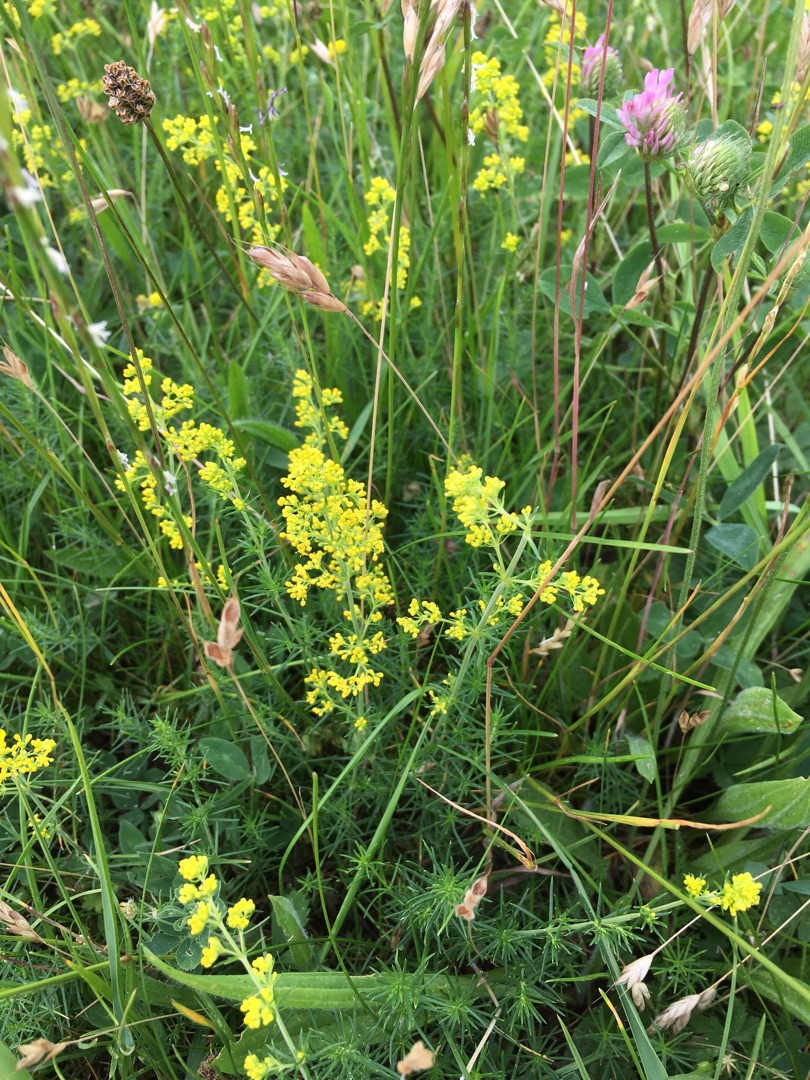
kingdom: Plantae
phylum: Tracheophyta
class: Magnoliopsida
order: Gentianales
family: Rubiaceae
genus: Galium
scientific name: Galium verum
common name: Gul snerre
